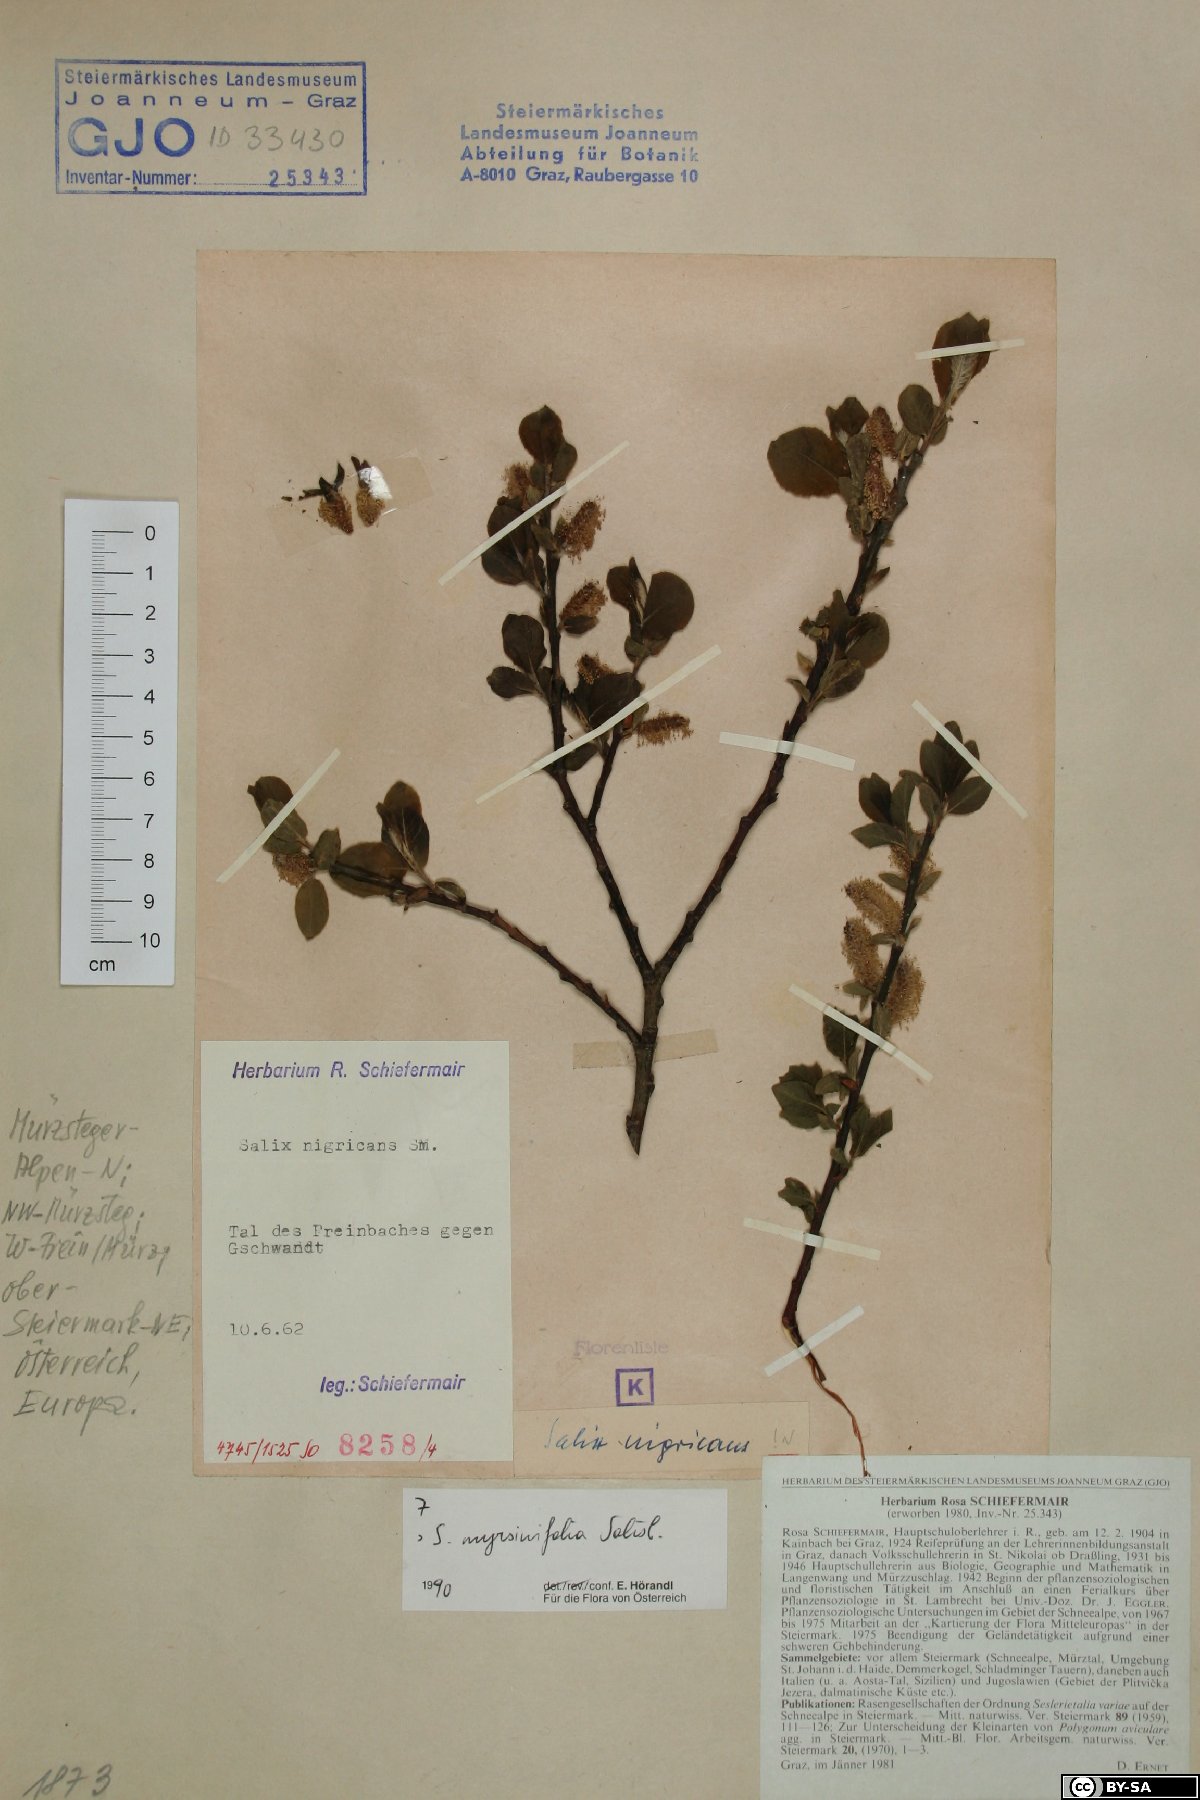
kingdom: Plantae
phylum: Tracheophyta
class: Magnoliopsida
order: Malpighiales
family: Salicaceae
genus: Salix
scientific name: Salix myrsinifolia
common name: Dark-leaved willow
